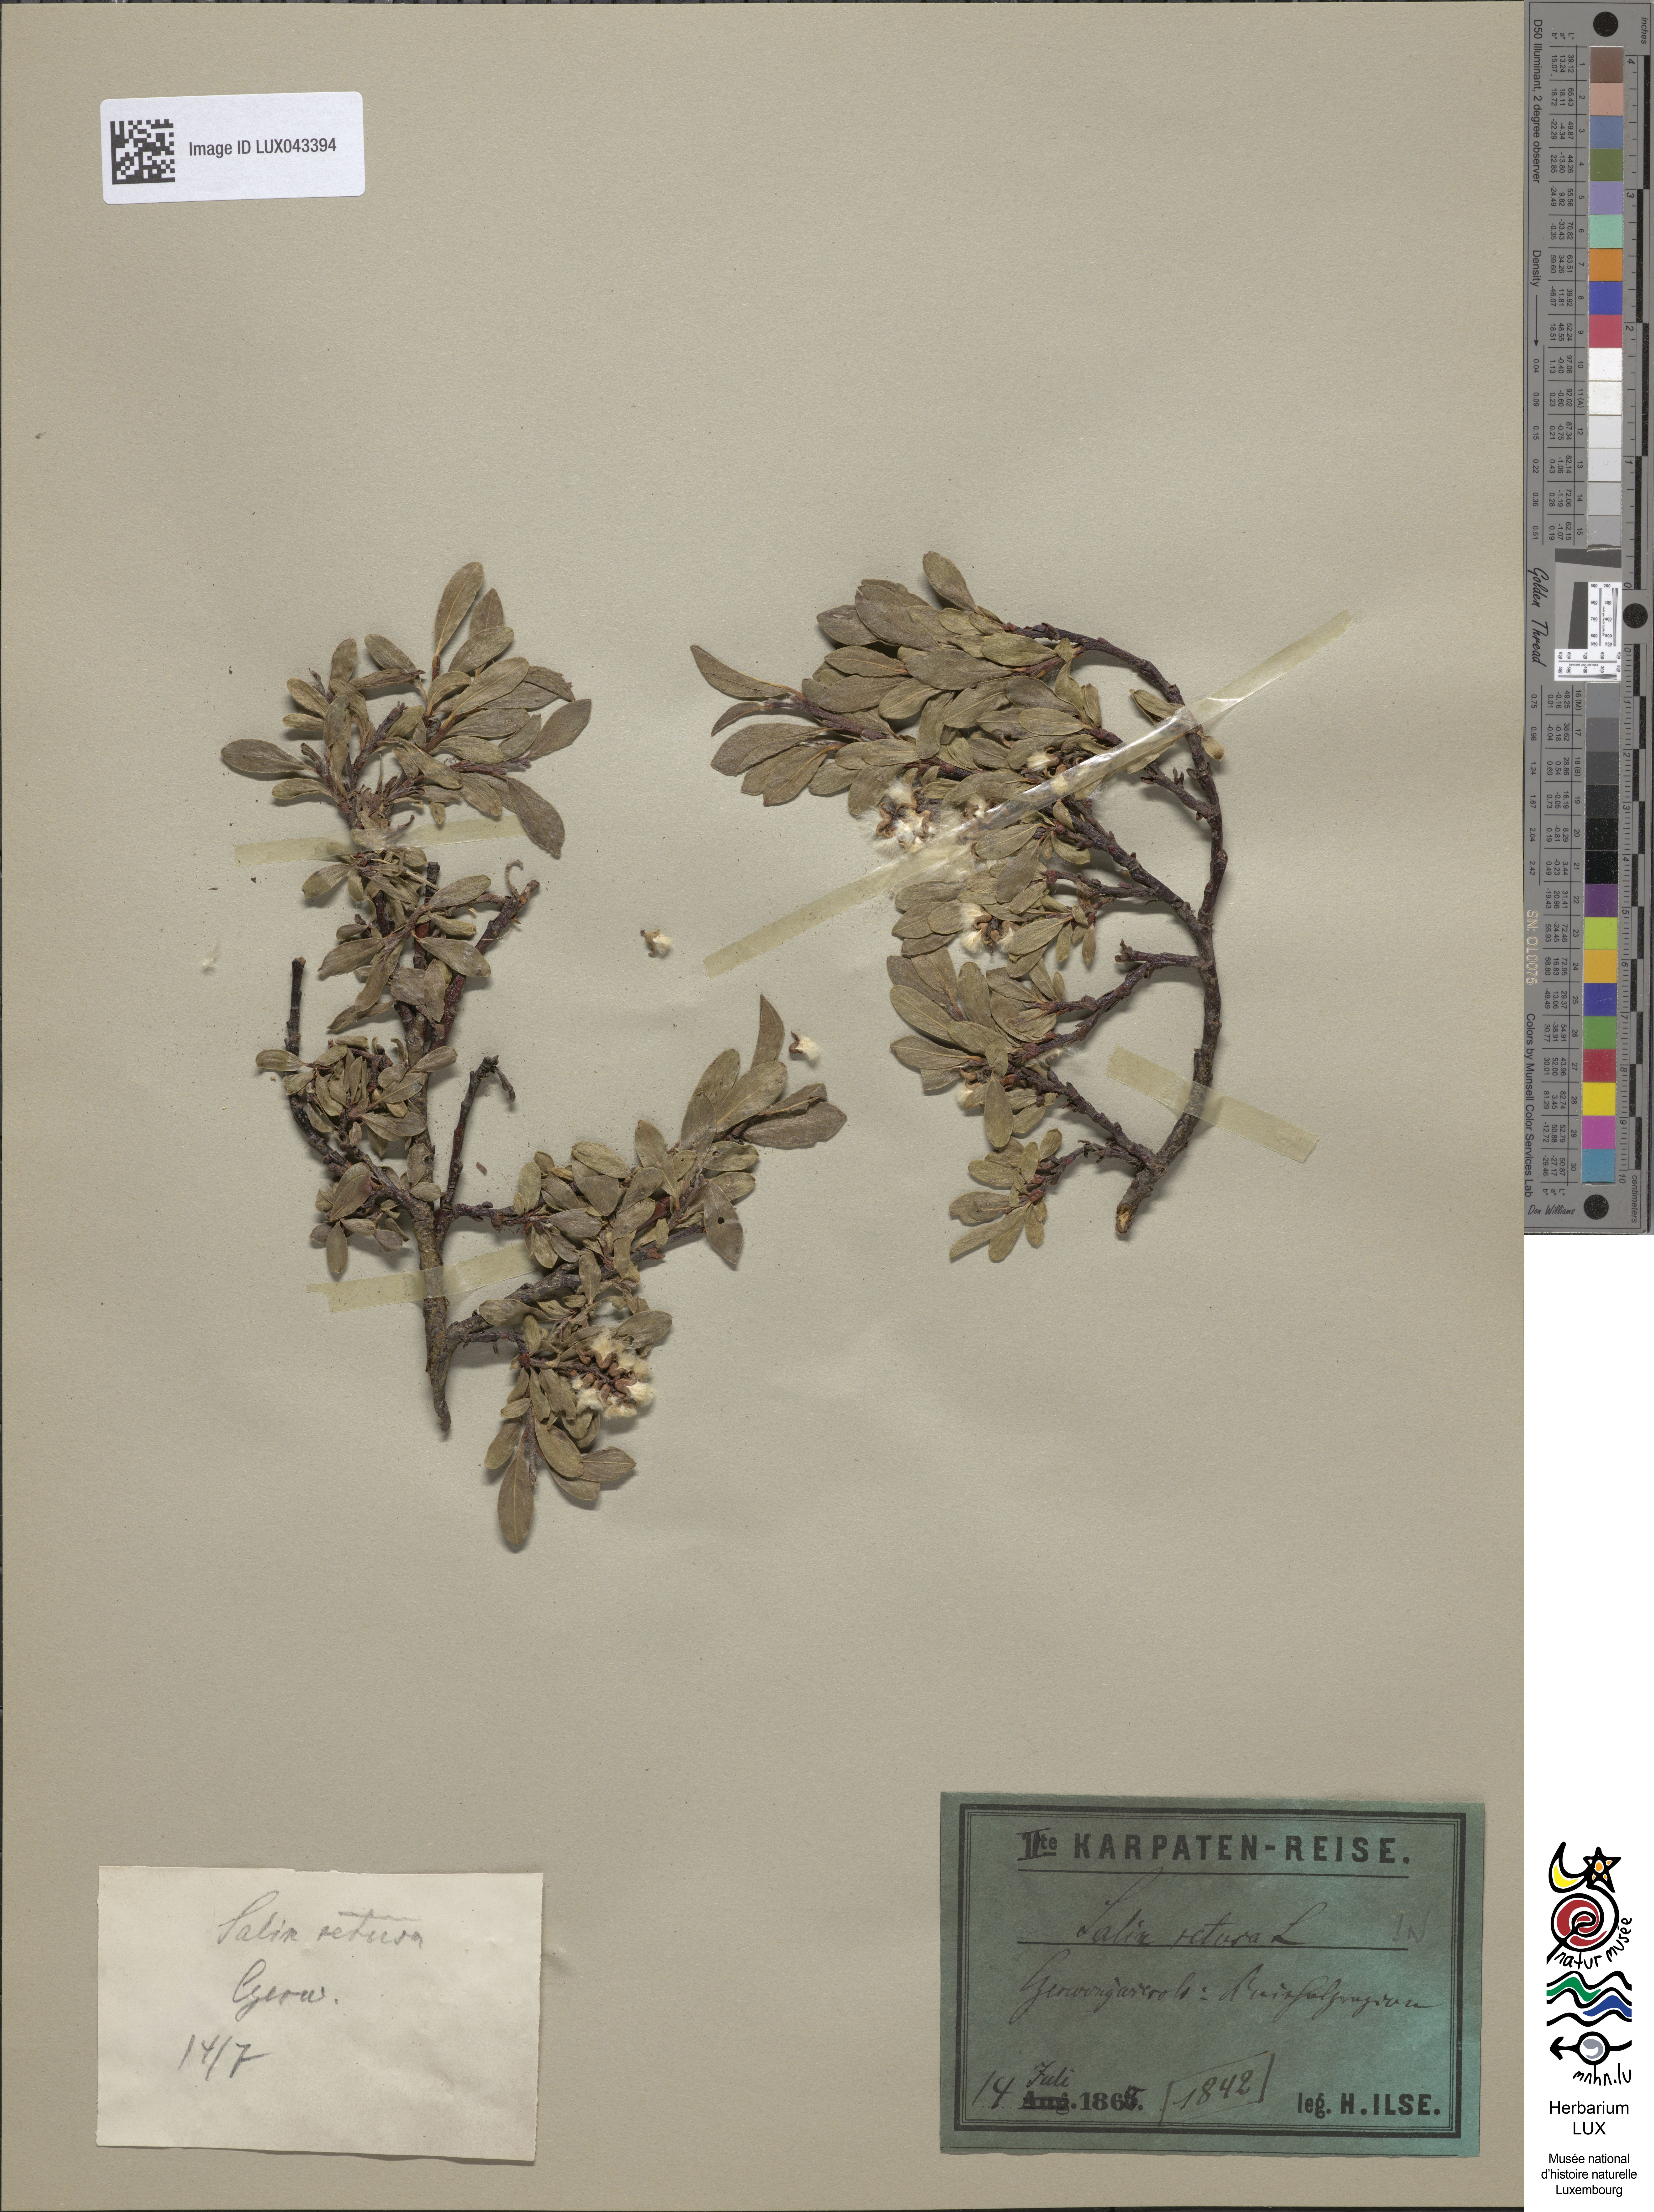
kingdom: Plantae
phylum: Tracheophyta
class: Magnoliopsida
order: Malpighiales
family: Salicaceae
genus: Salix
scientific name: Salix retusa
